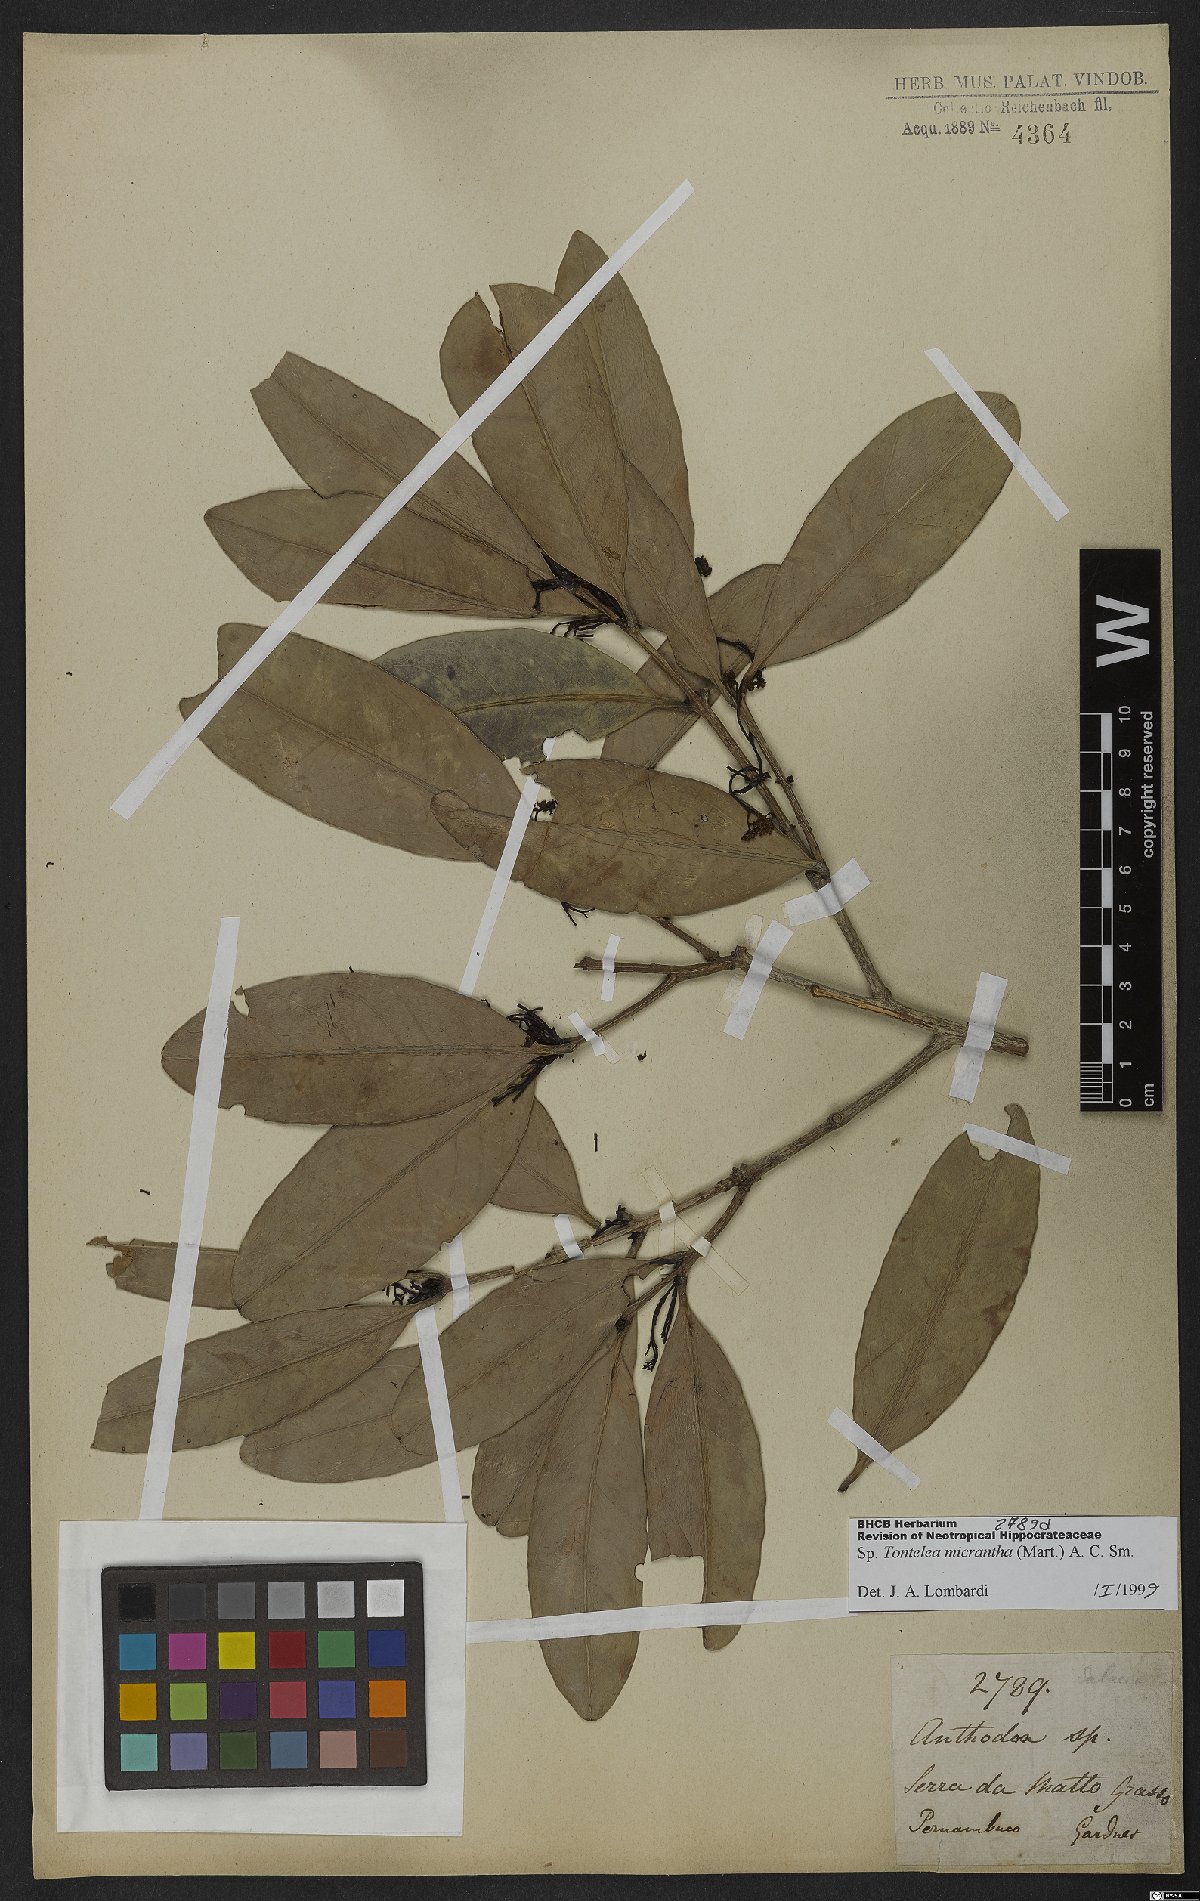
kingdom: Plantae
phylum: Tracheophyta
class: Magnoliopsida
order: Celastrales
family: Celastraceae
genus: Tontelea
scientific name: Tontelea micrantha
